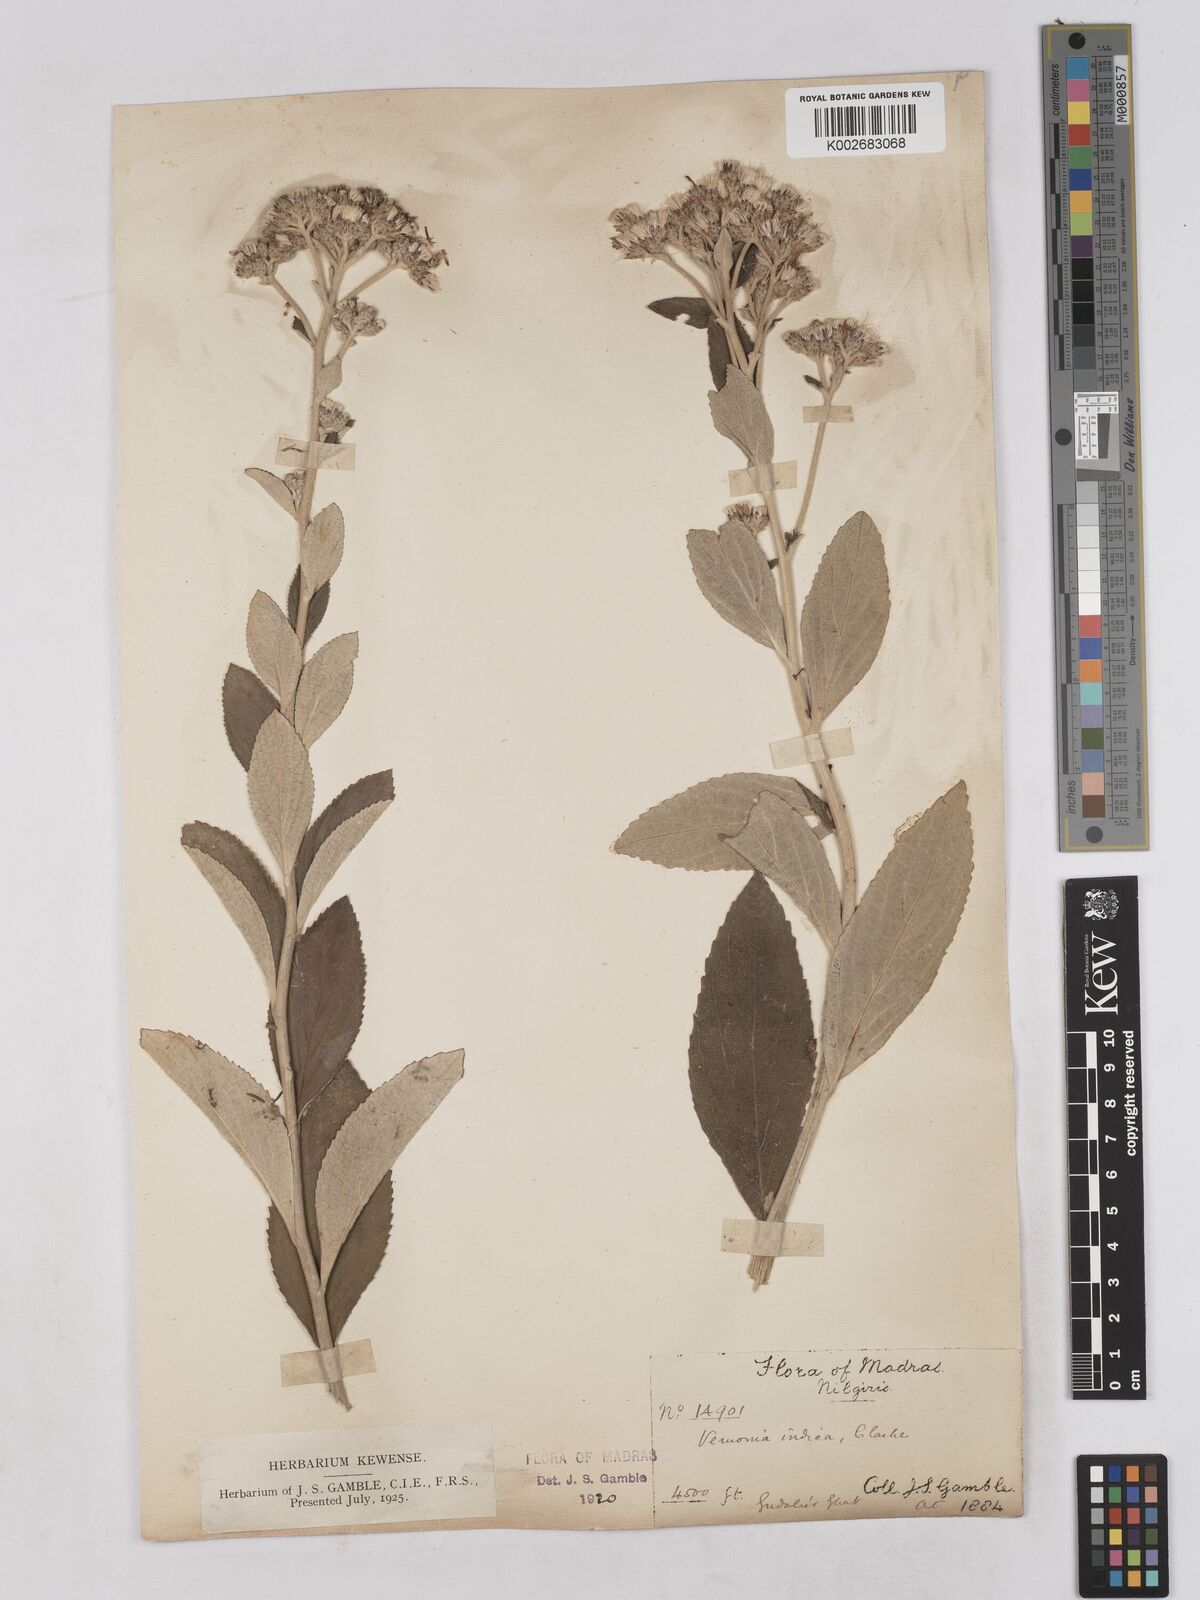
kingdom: Plantae
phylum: Tracheophyta
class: Magnoliopsida
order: Asterales
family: Asteraceae
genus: Acilepis
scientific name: Acilepis dendigulensis
